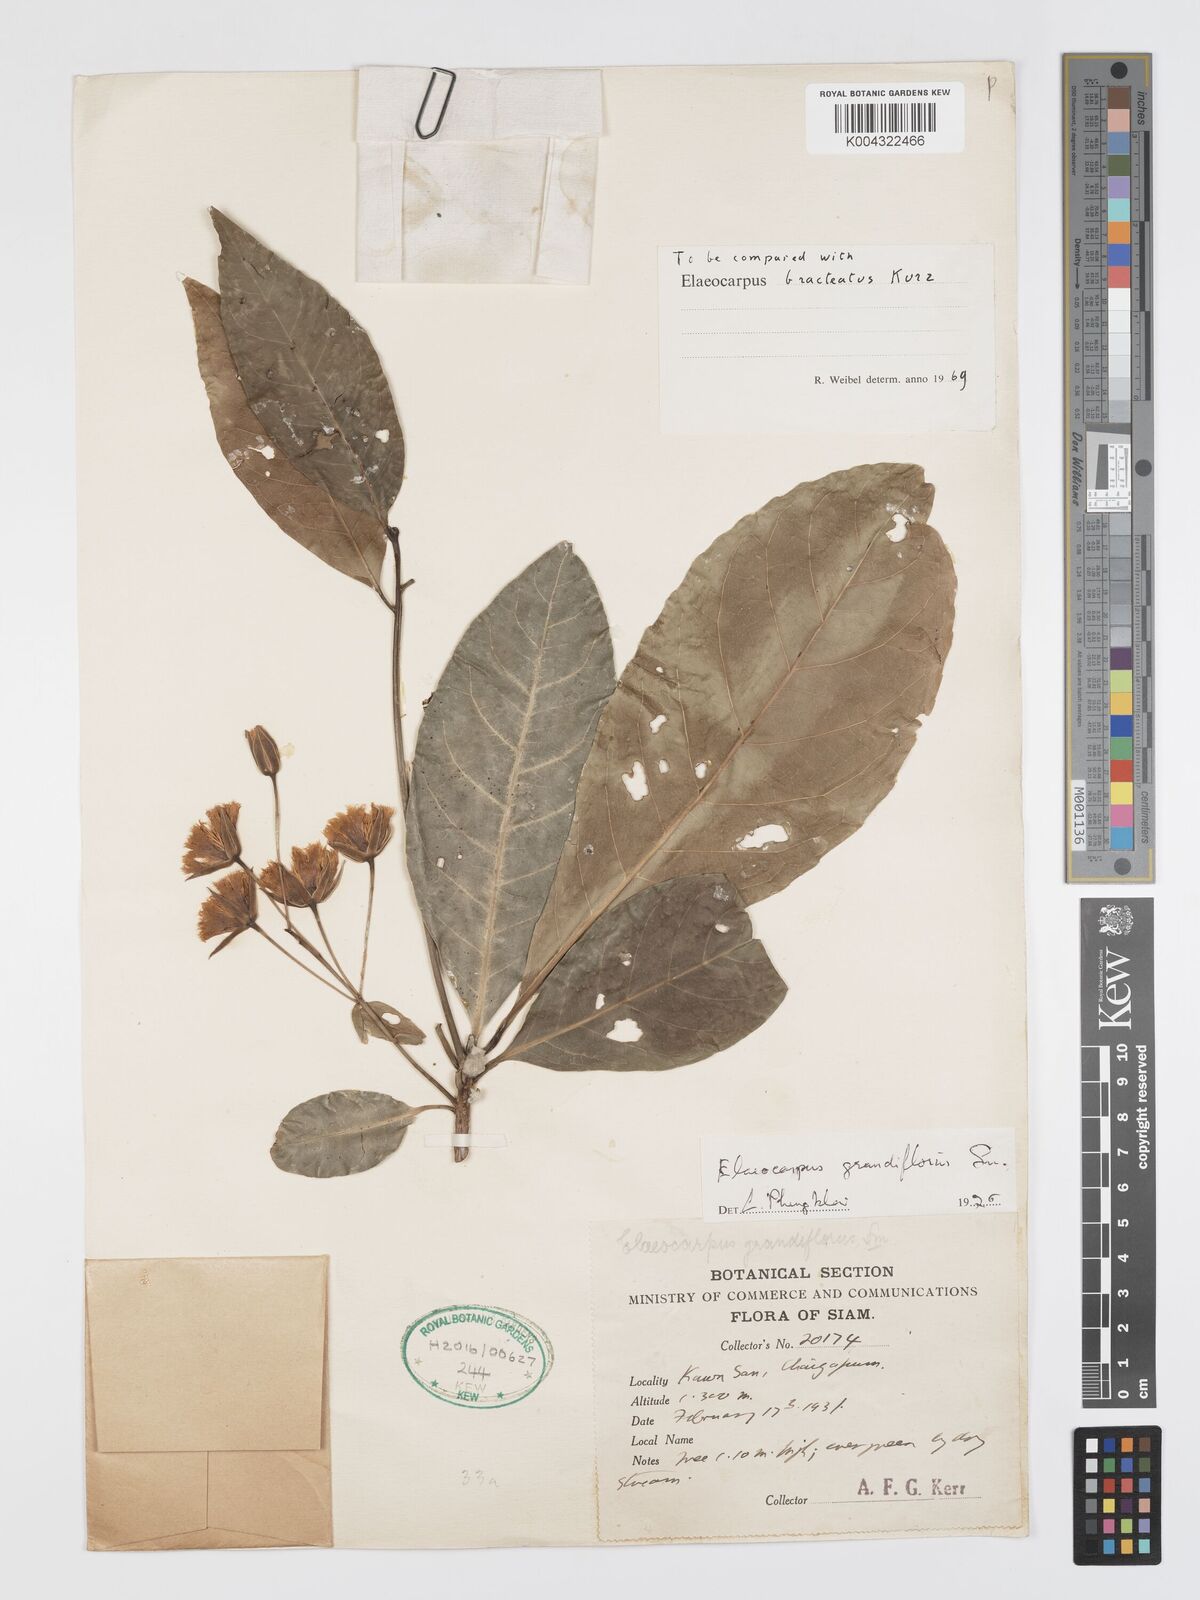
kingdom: Plantae
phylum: Tracheophyta
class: Magnoliopsida
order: Oxalidales
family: Elaeocarpaceae
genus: Elaeocarpus
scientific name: Elaeocarpus grandiflorus
